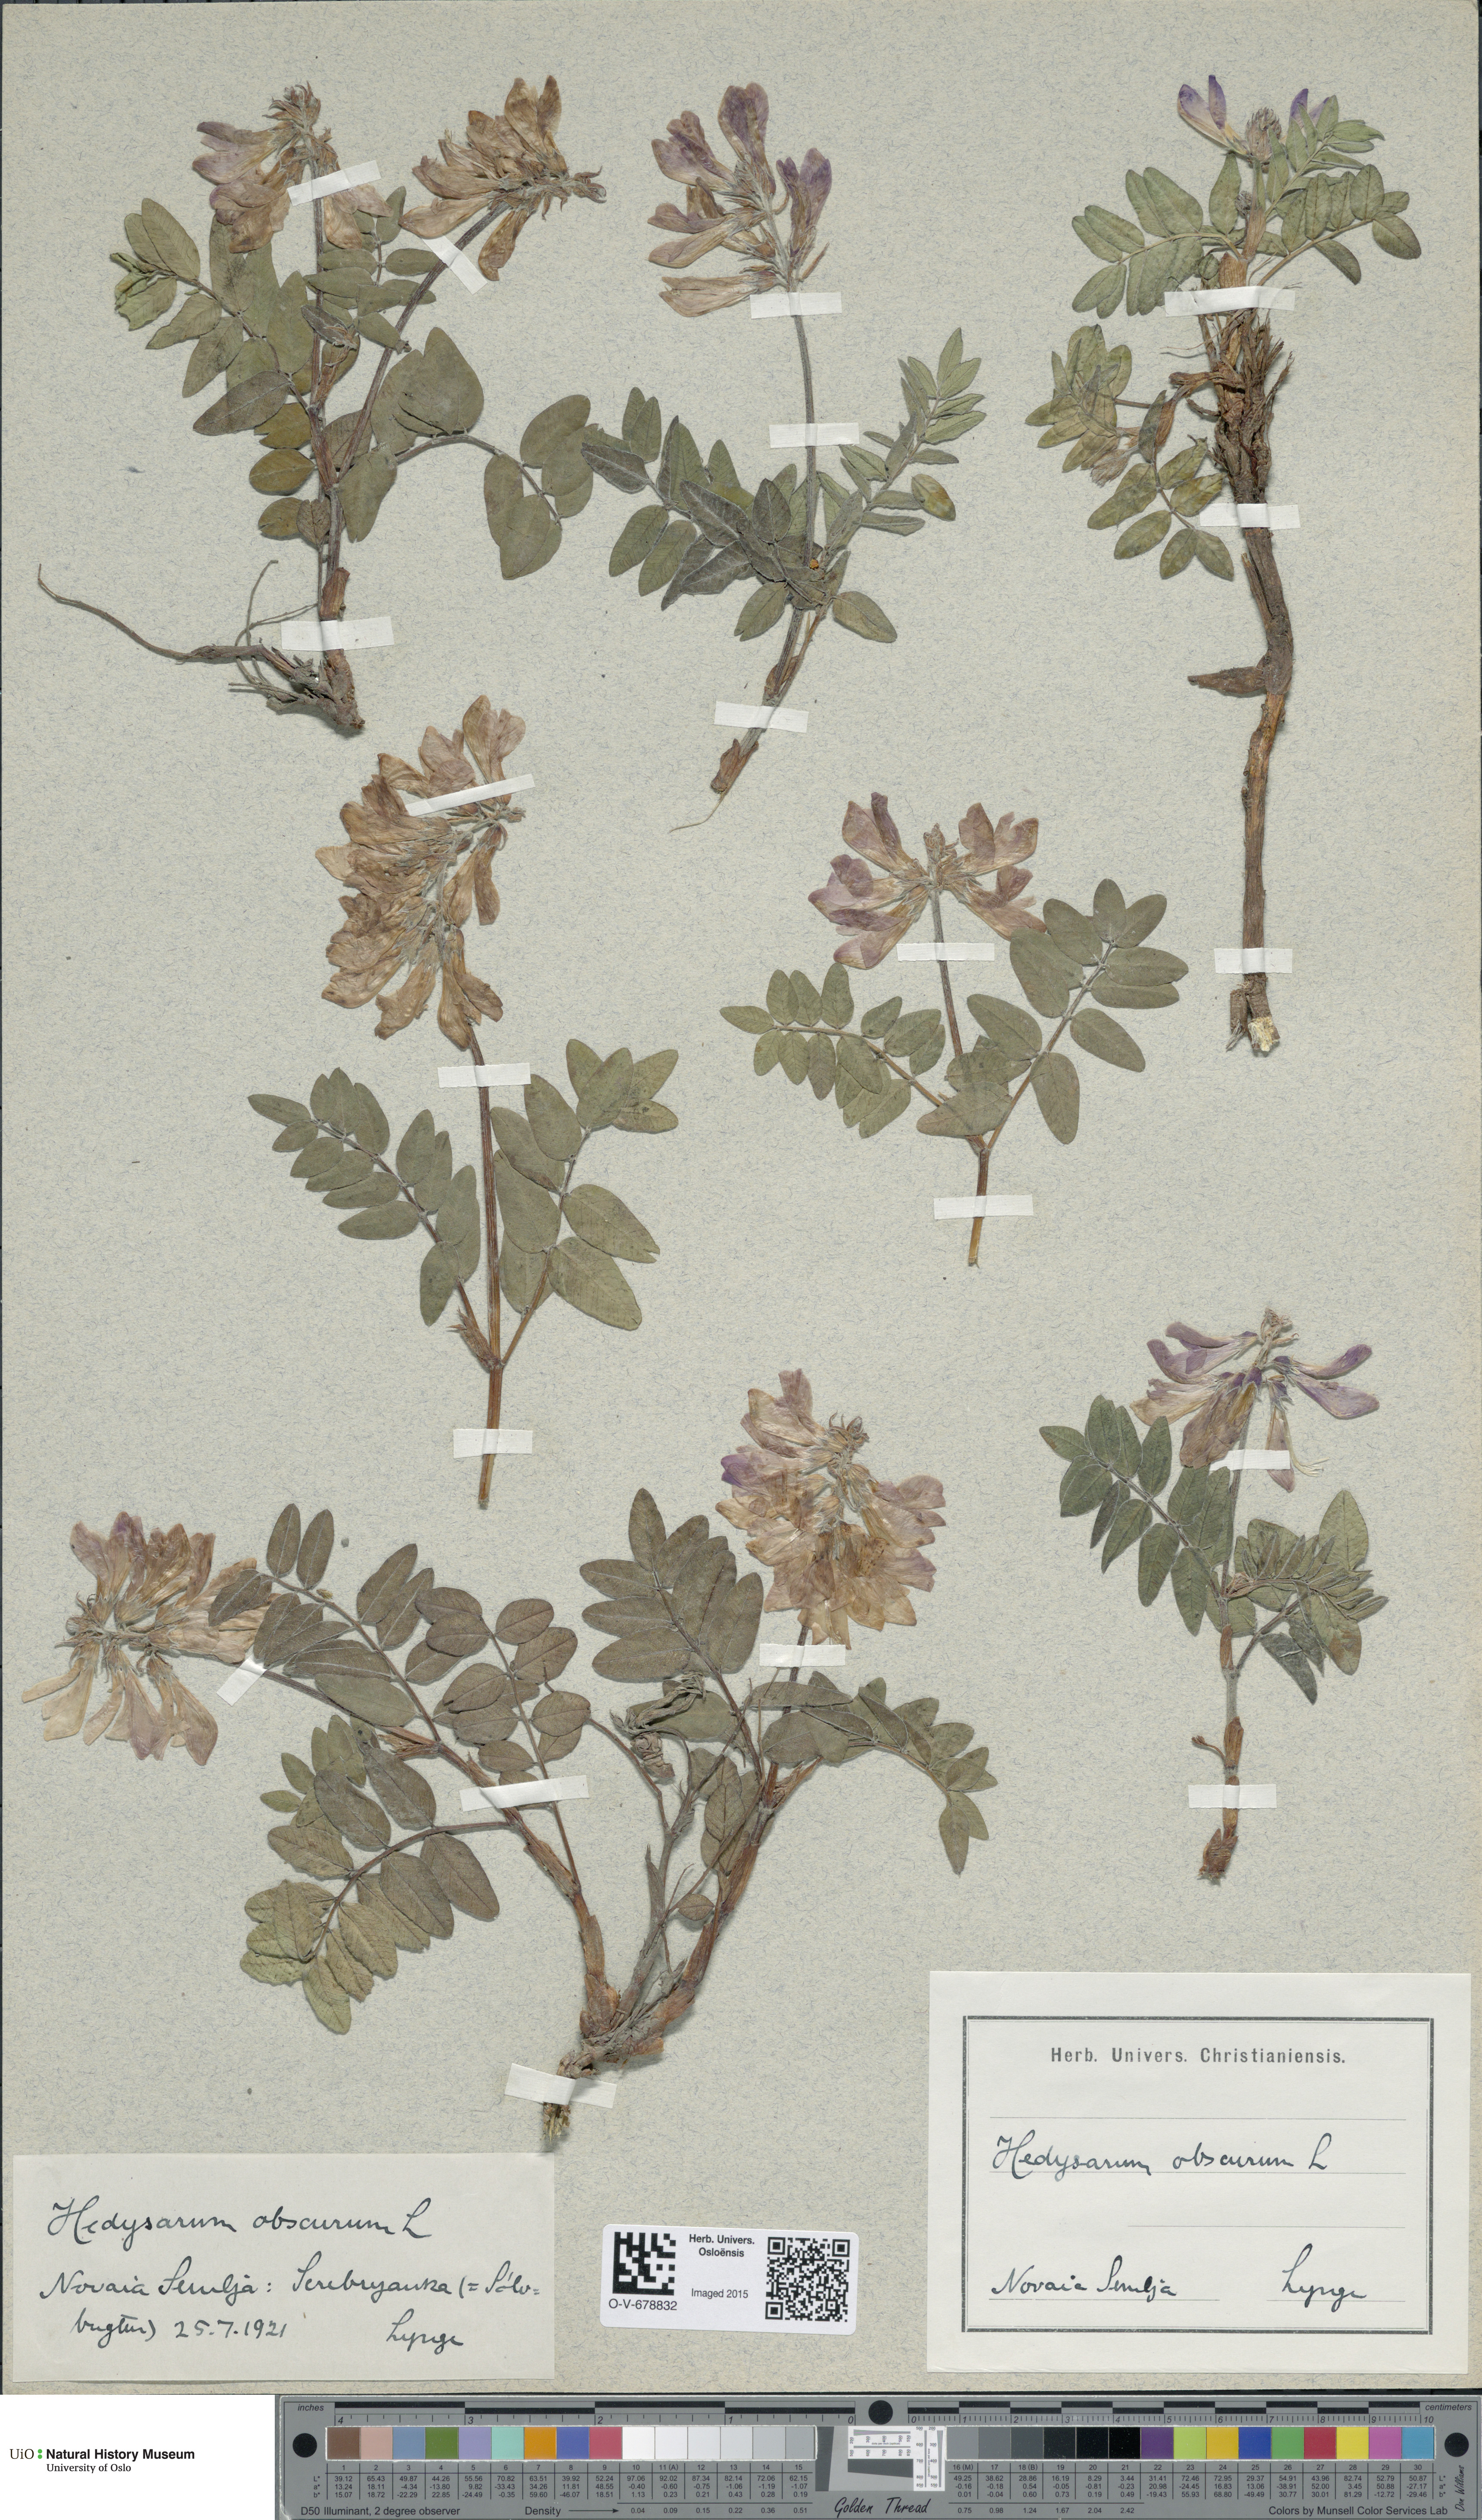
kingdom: Plantae
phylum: Tracheophyta
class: Magnoliopsida
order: Fabales
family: Fabaceae
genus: Hedysarum
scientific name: Hedysarum hedysaroides
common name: Alpine french-honeysuckle
